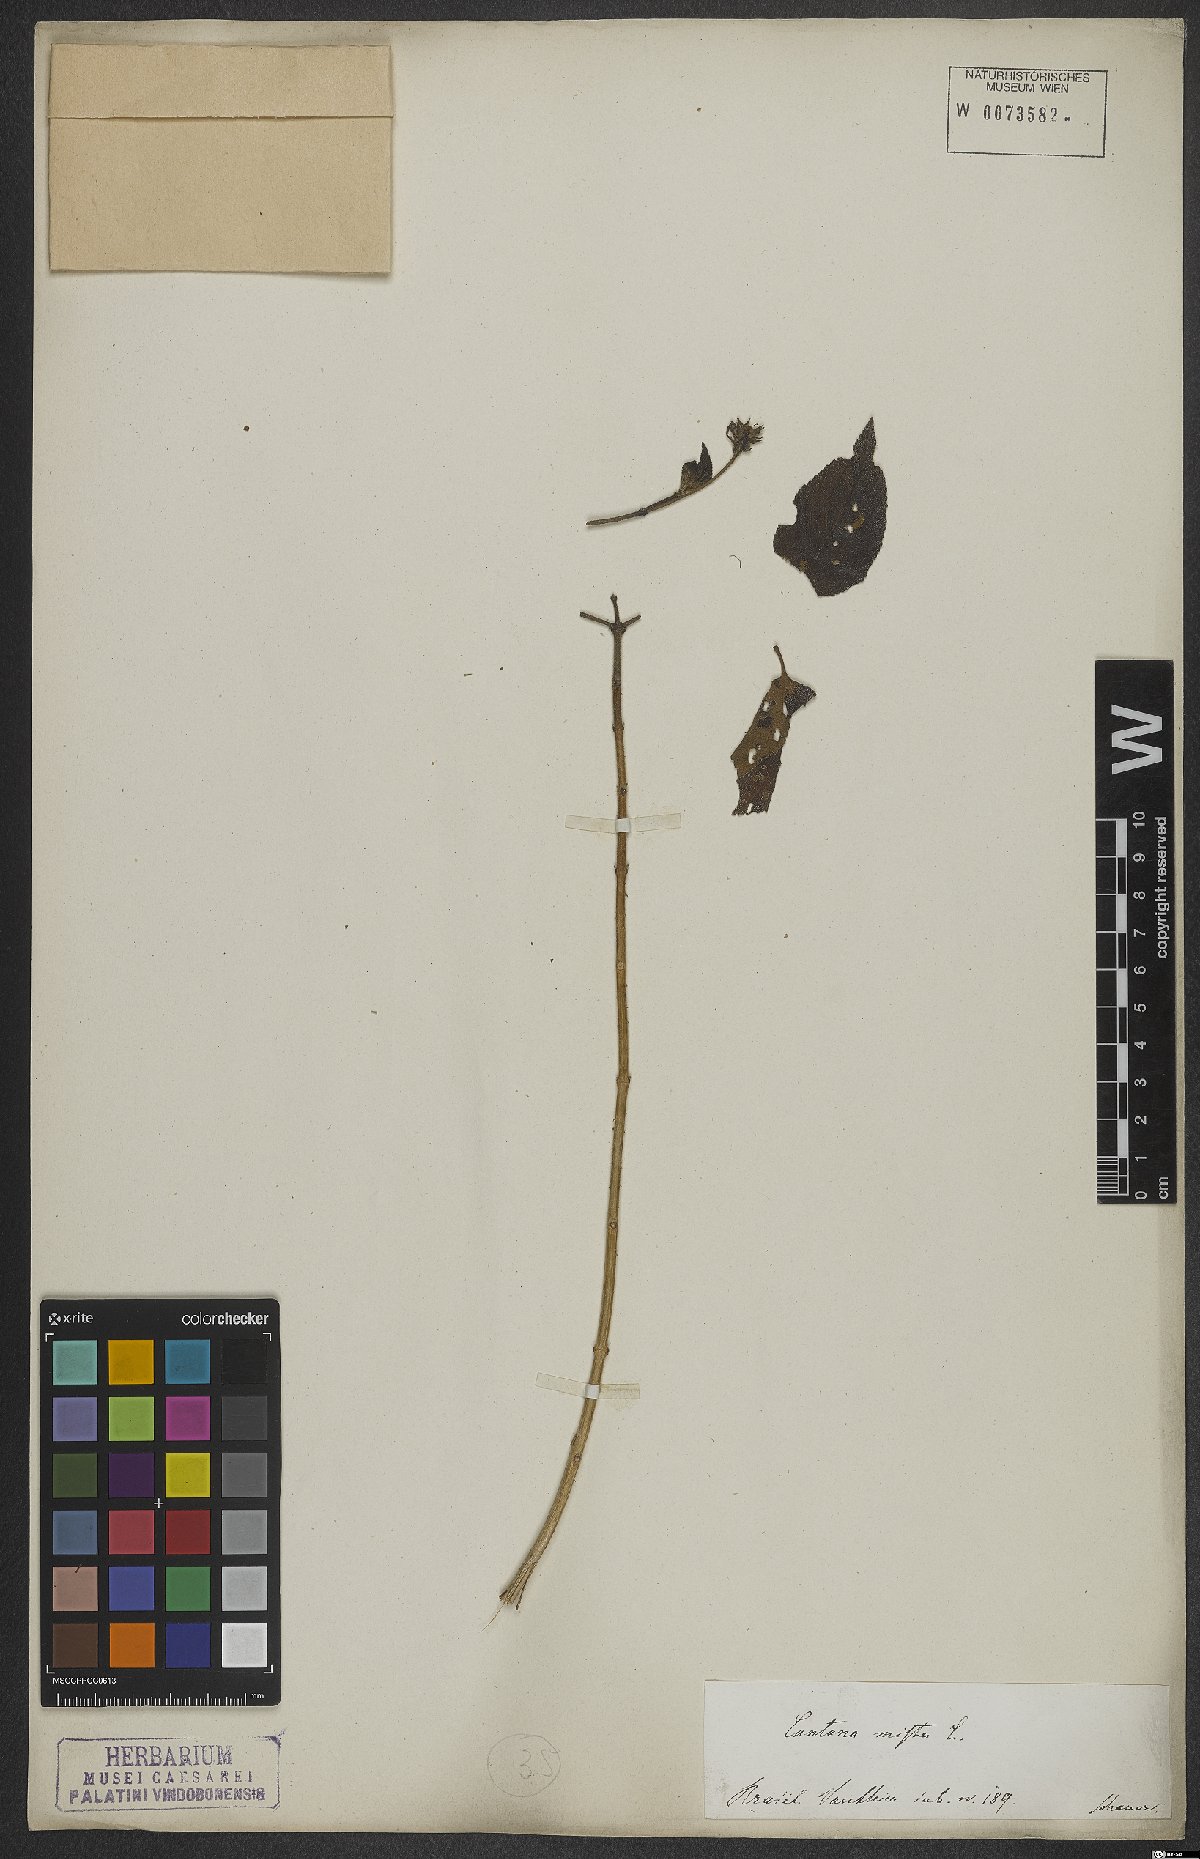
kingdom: Plantae
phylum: Tracheophyta
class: Magnoliopsida
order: Lamiales
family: Verbenaceae
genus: Lantana
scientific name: Lantana mista
